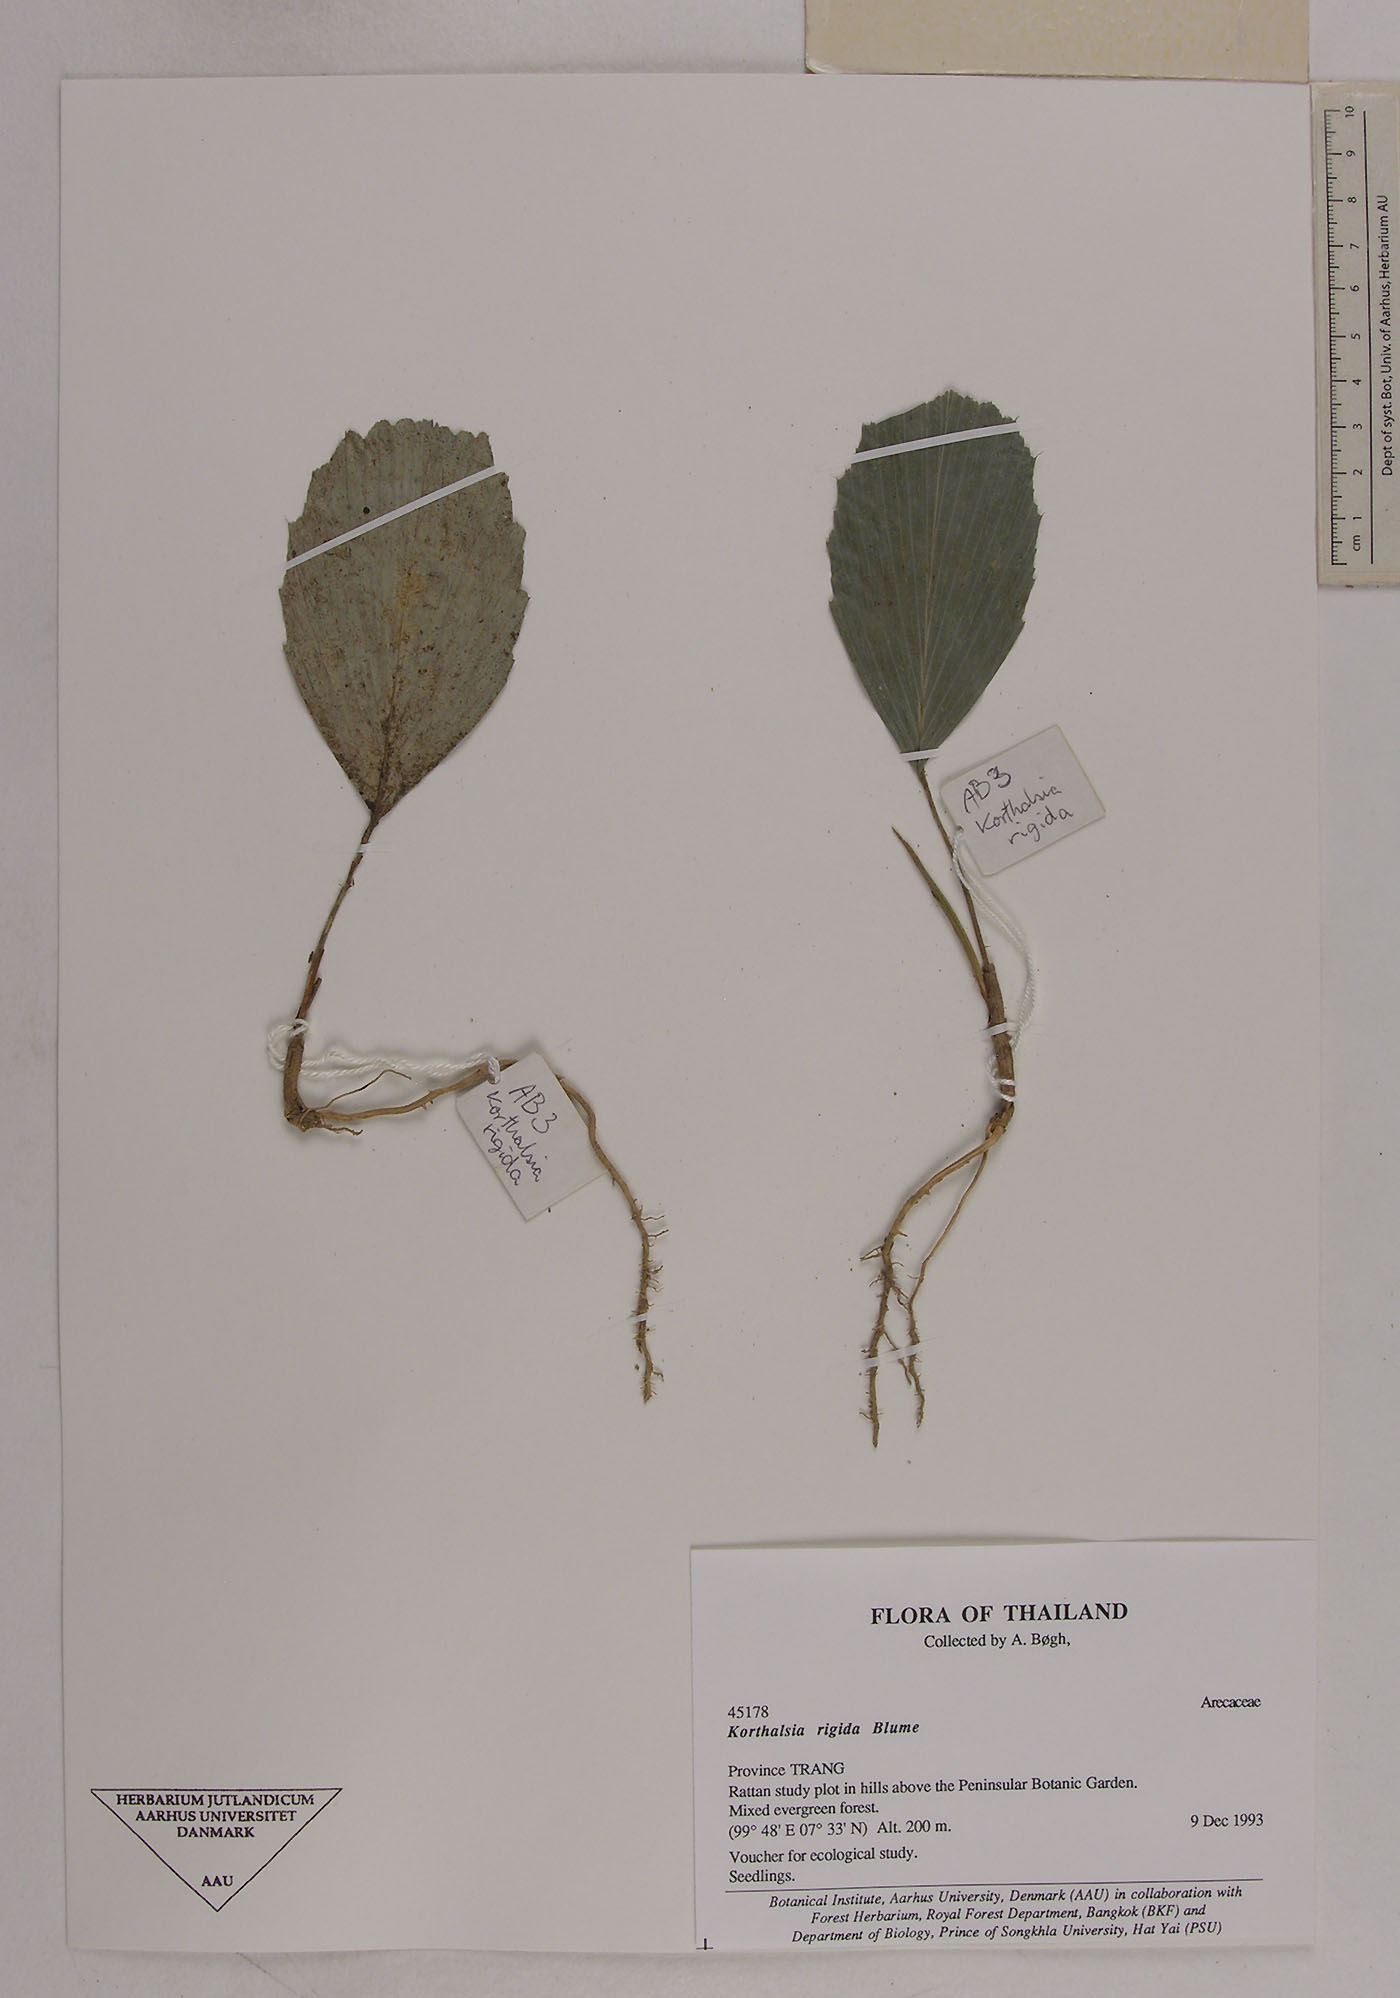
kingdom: Plantae
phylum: Tracheophyta
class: Liliopsida
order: Arecales
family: Arecaceae
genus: Korthalsia
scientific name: Korthalsia rigida
